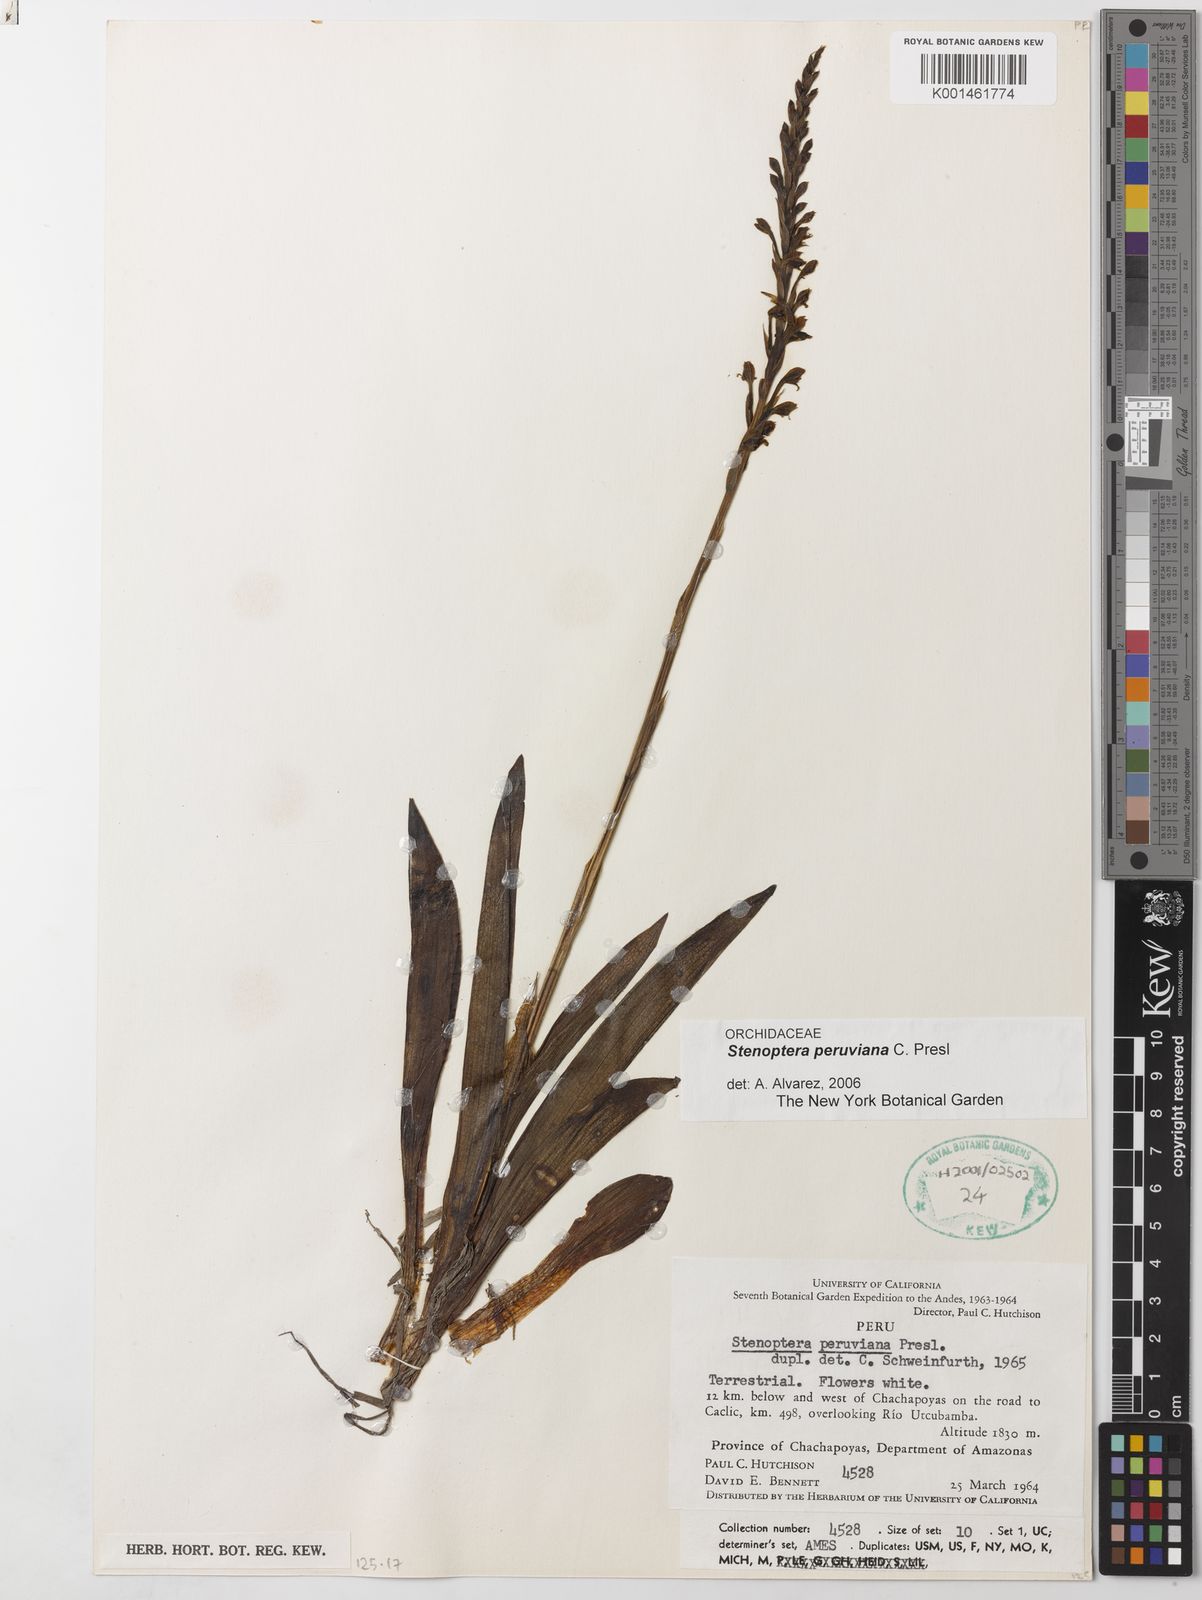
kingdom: Plantae
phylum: Tracheophyta
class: Liliopsida
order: Asparagales
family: Orchidaceae
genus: Stenoptera
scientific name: Stenoptera peruviana
